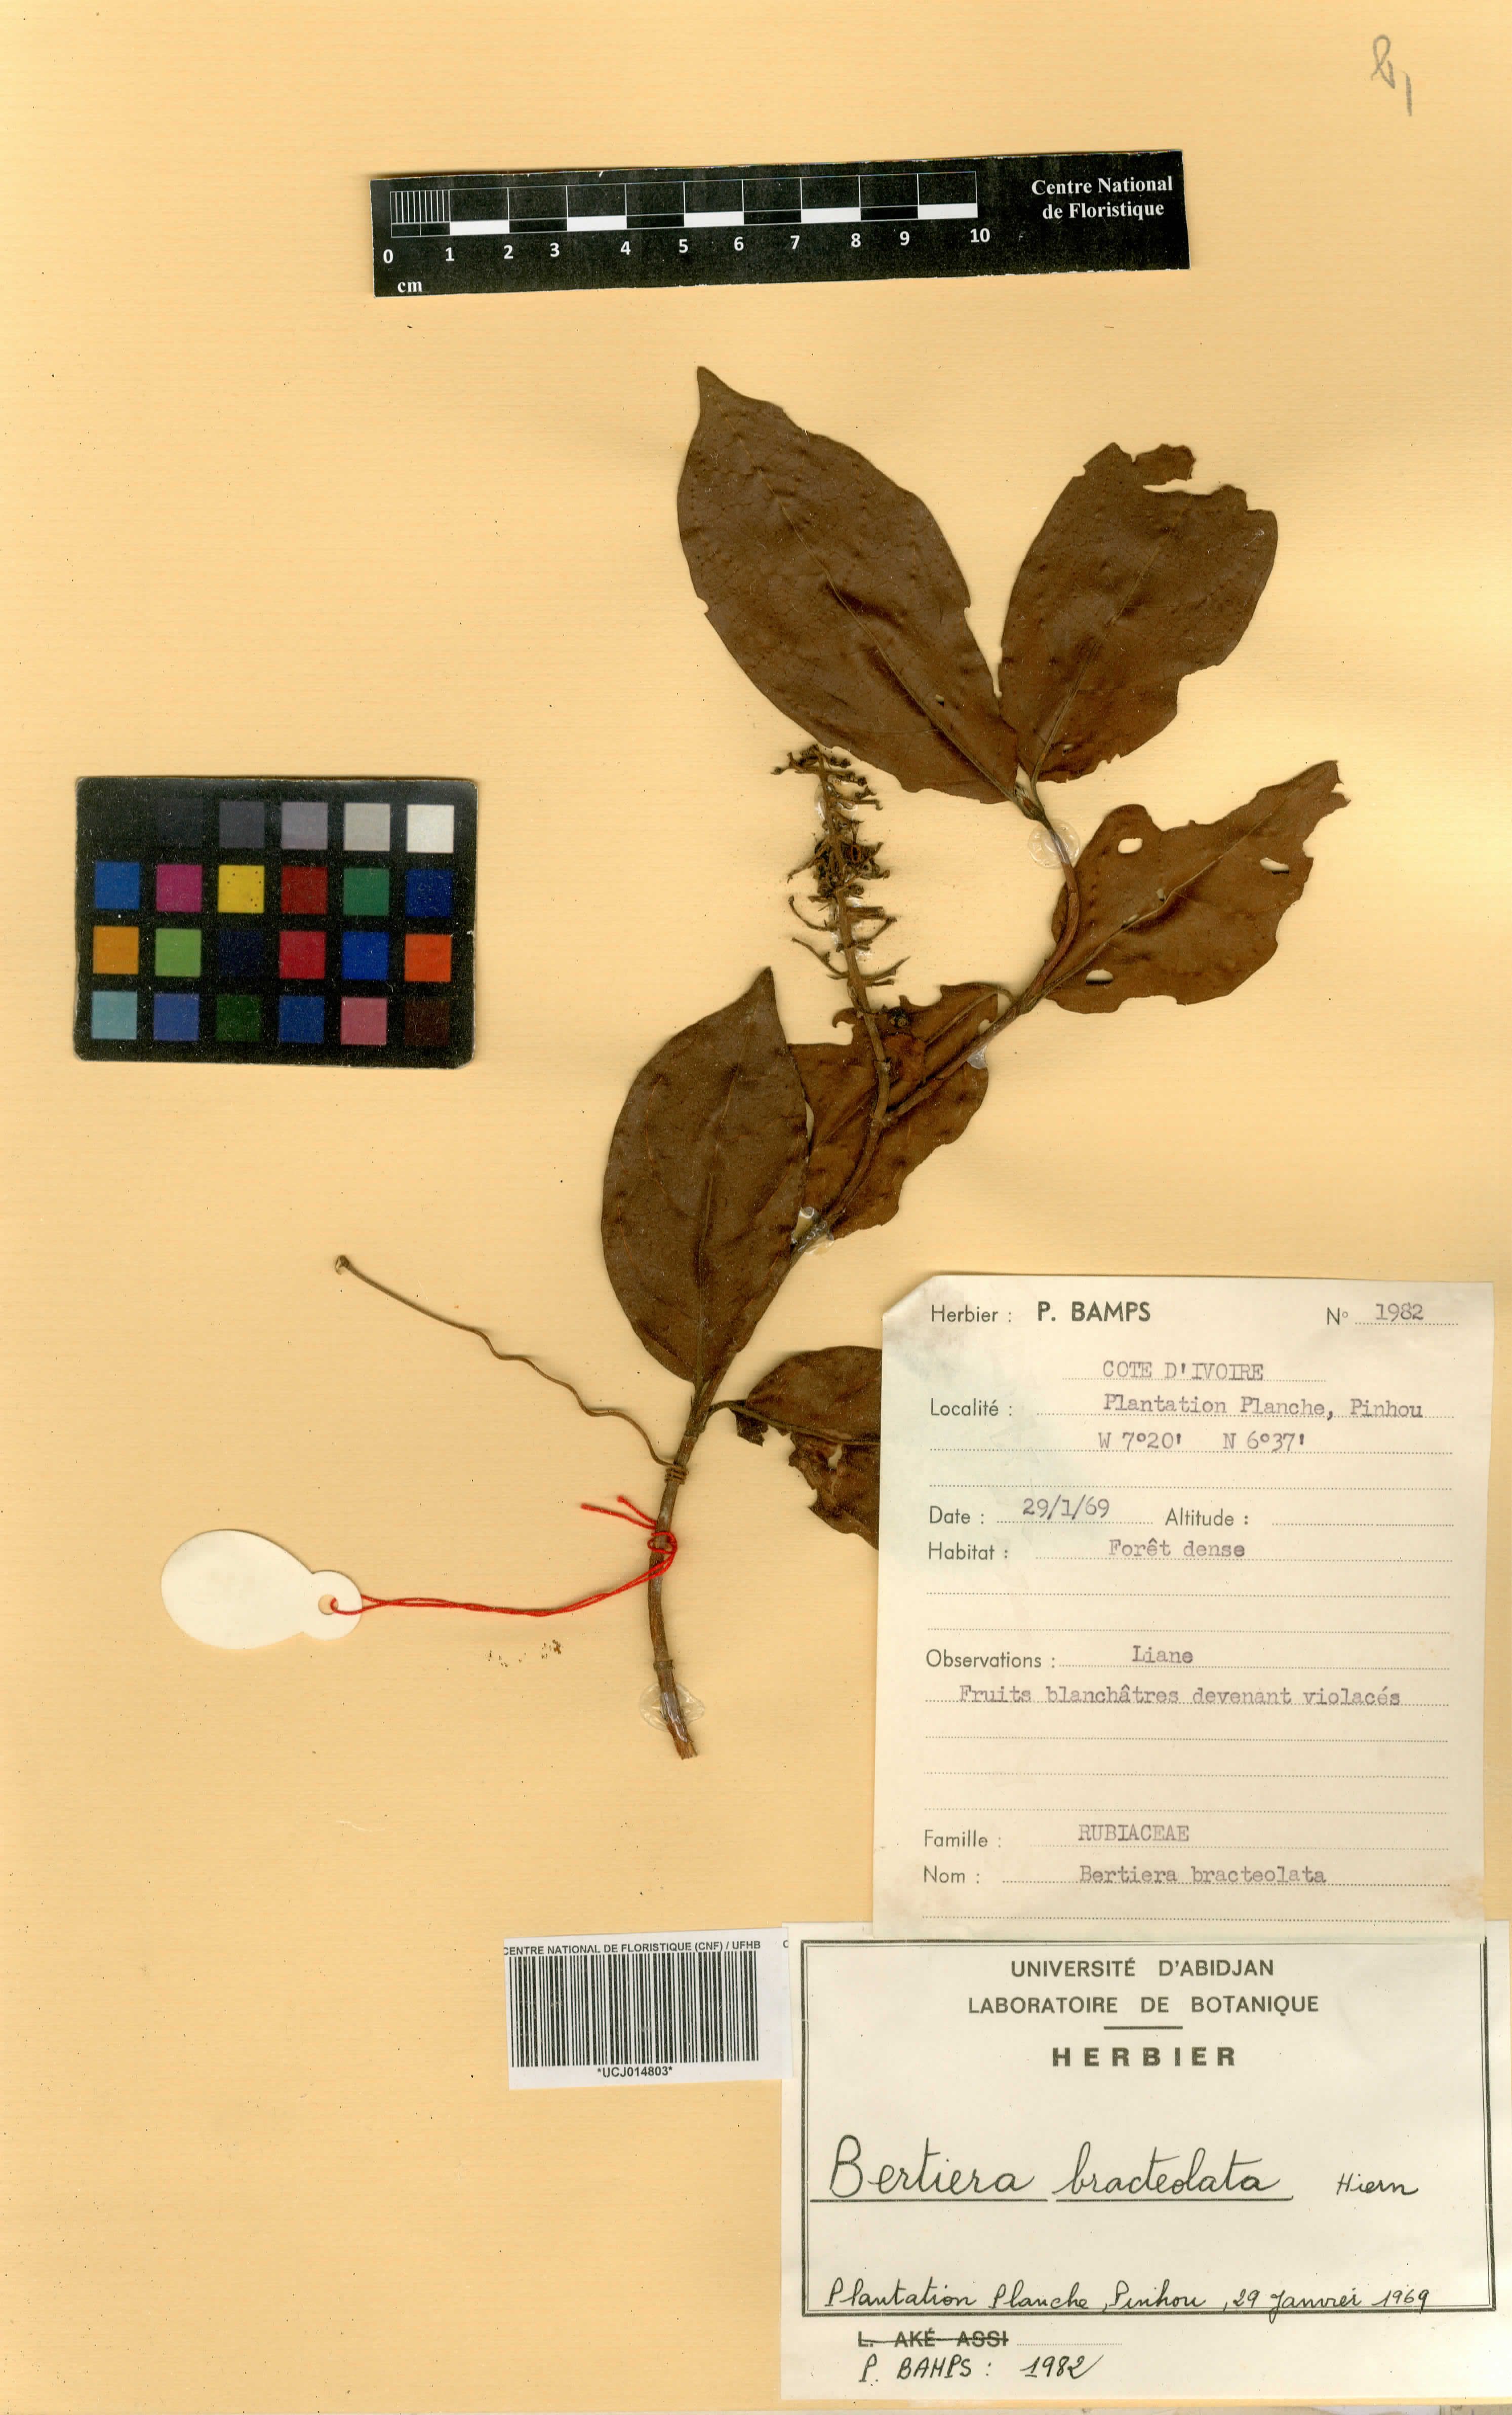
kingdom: Plantae
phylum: Tracheophyta
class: Magnoliopsida
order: Gentianales
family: Rubiaceae
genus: Bertiera
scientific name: Bertiera bracteolata
